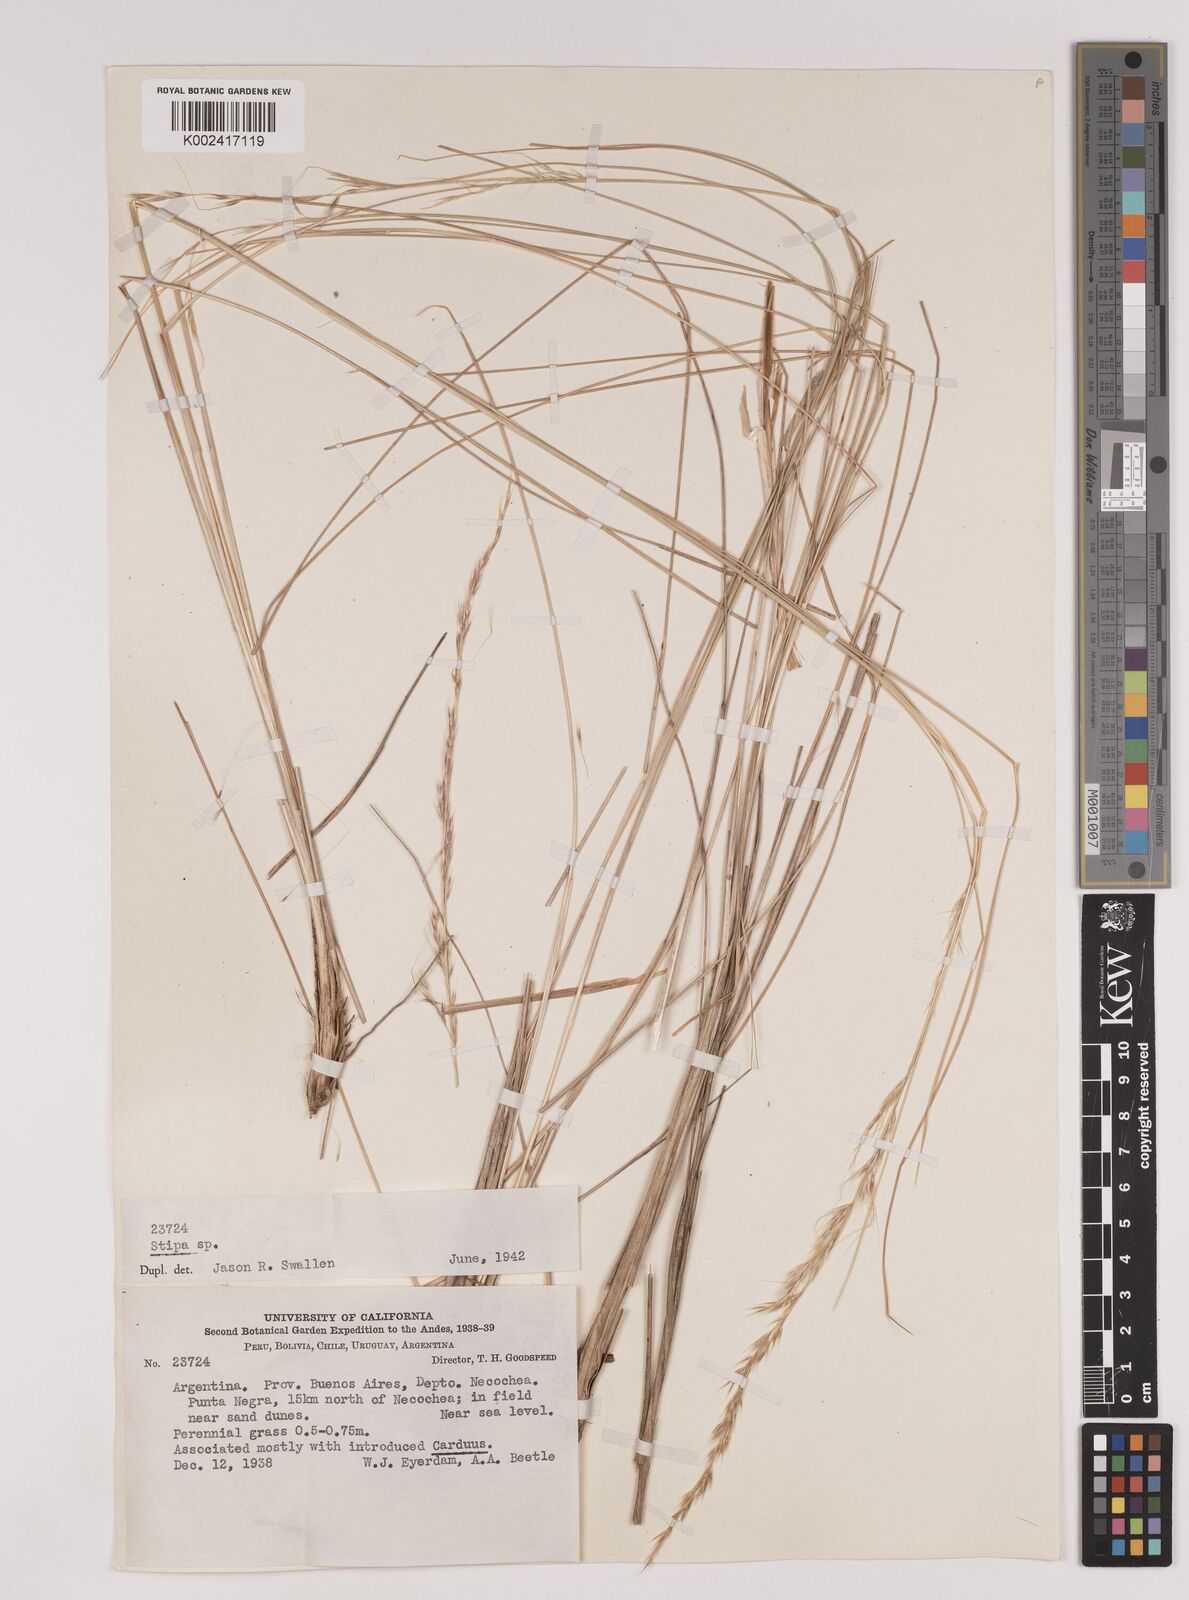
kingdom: Plantae
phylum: Tracheophyta
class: Liliopsida
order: Poales
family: Poaceae
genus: Stipa
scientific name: Stipa
